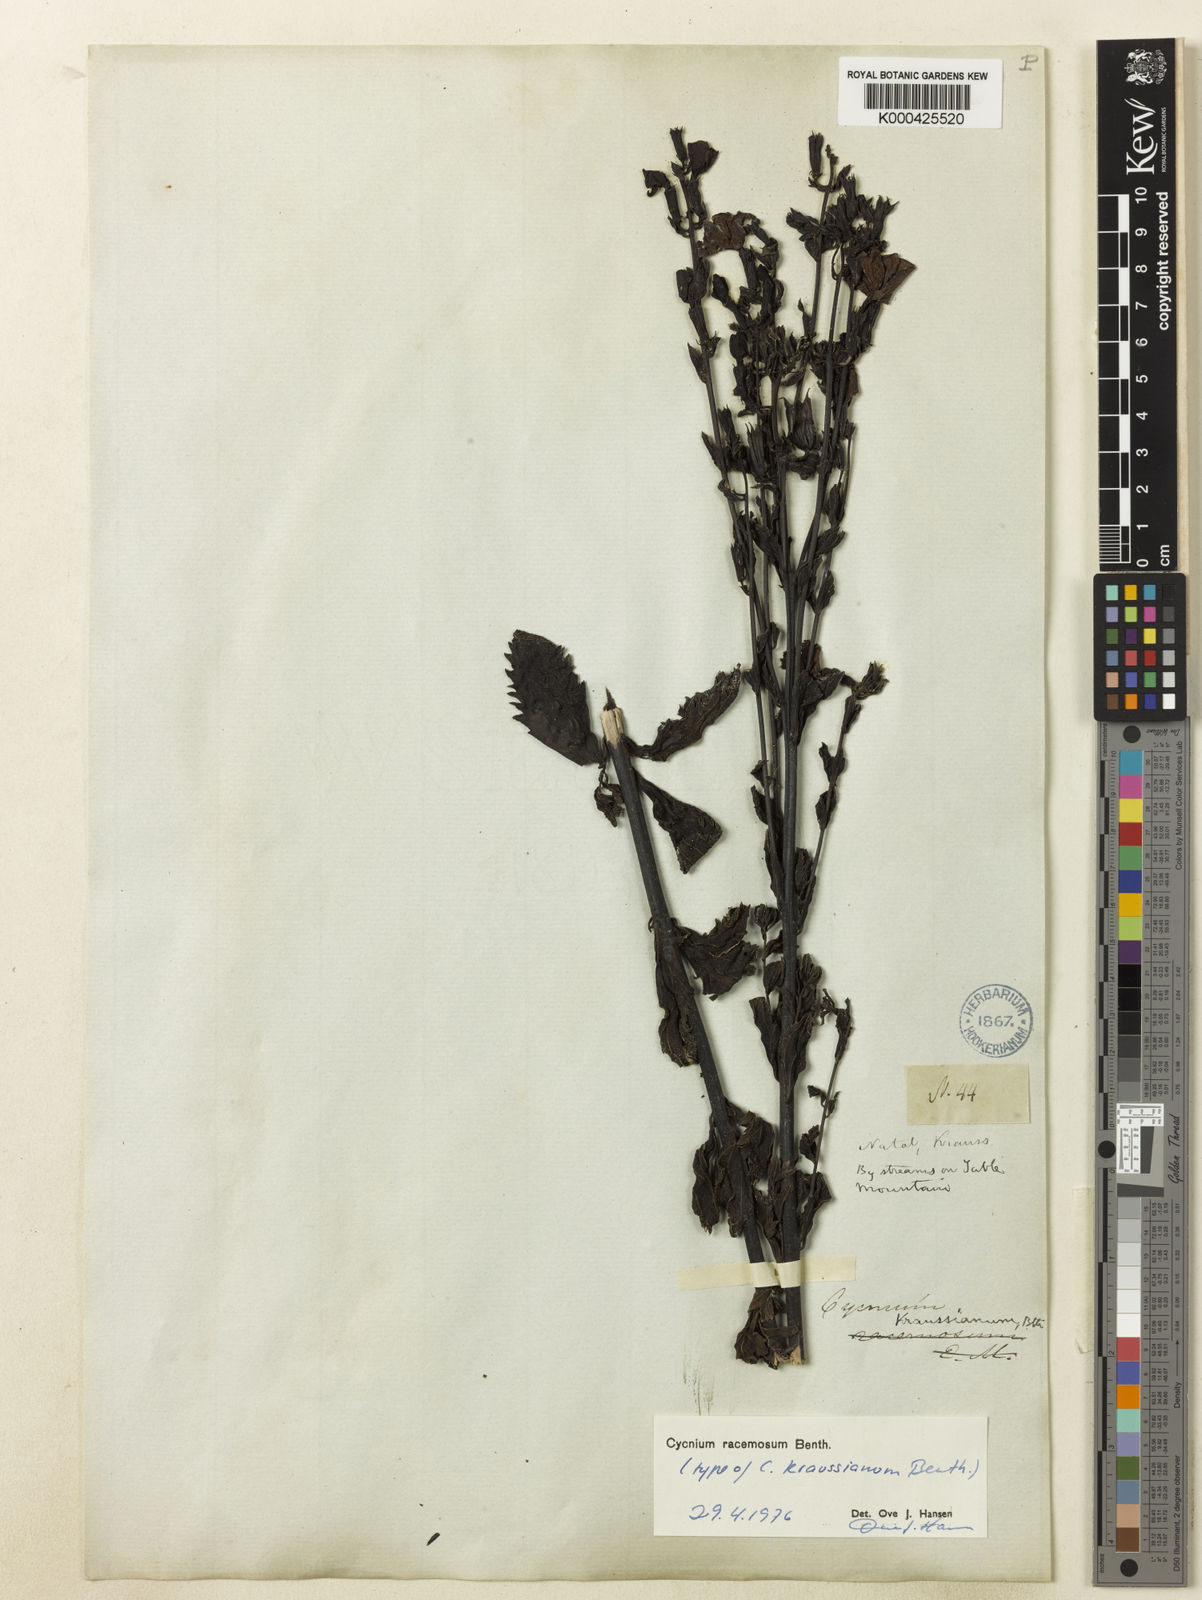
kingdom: Plantae
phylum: Tracheophyta
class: Magnoliopsida
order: Lamiales
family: Orobanchaceae
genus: Cycnium
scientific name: Cycnium racemosum
